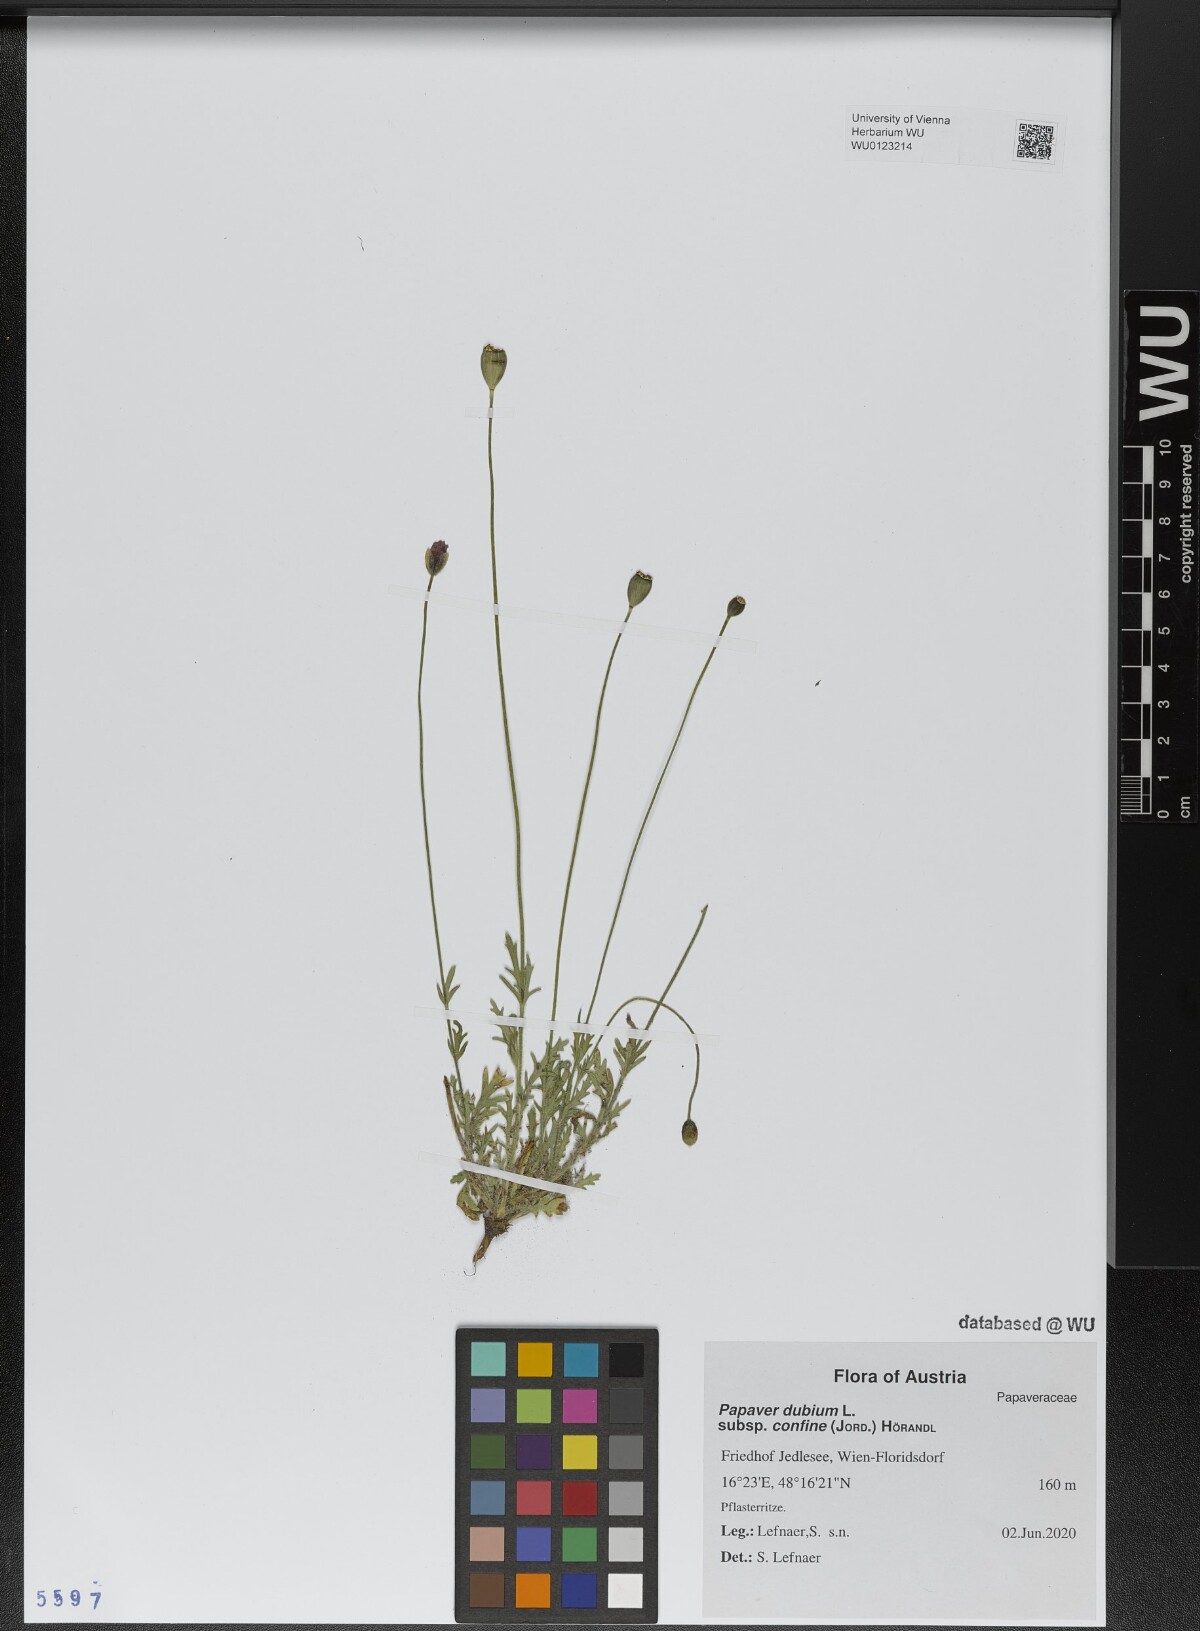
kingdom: Plantae
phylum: Tracheophyta
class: Magnoliopsida
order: Ranunculales
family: Papaveraceae
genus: Papaver
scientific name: Papaver confine
